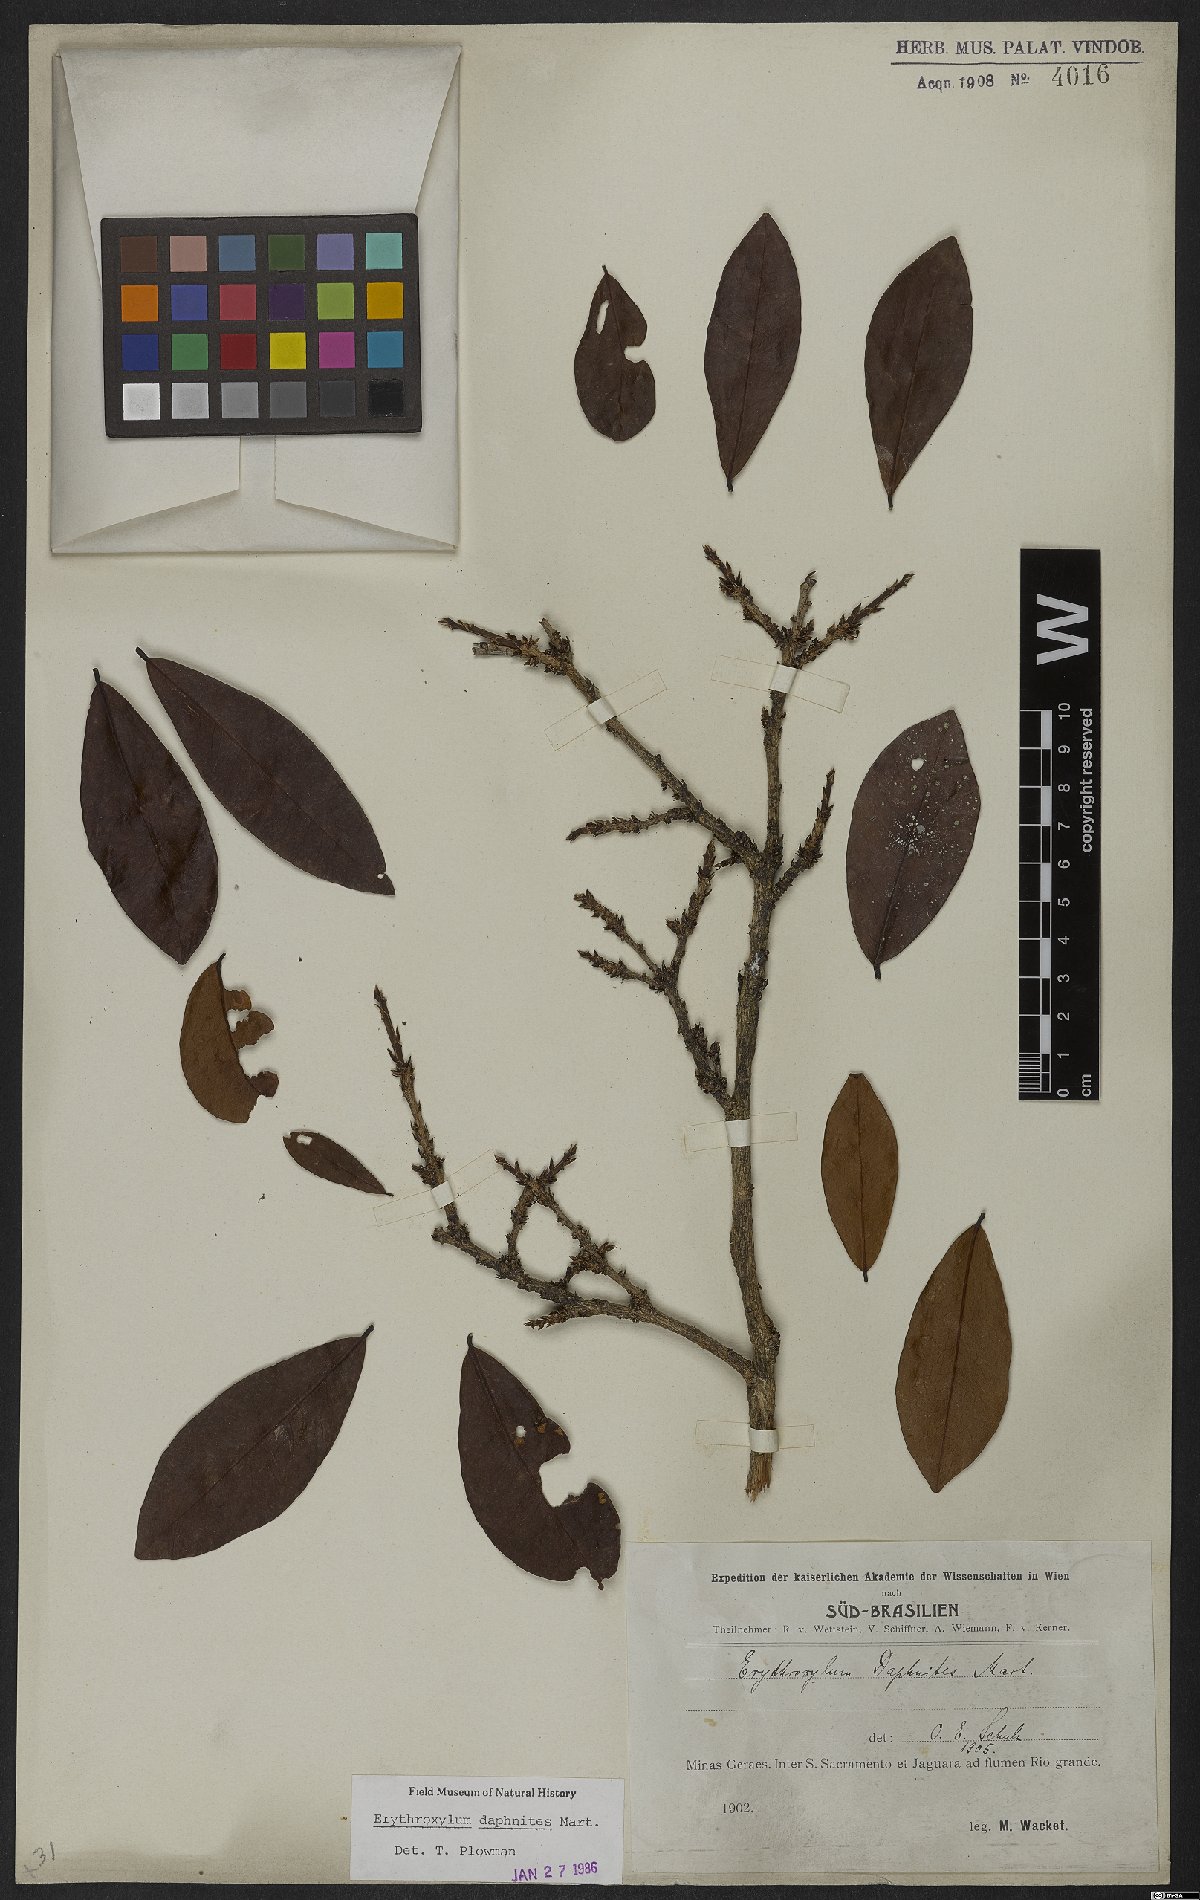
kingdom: Plantae
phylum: Tracheophyta
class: Magnoliopsida
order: Malpighiales
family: Erythroxylaceae
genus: Erythroxylum
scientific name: Erythroxylum daphnites
